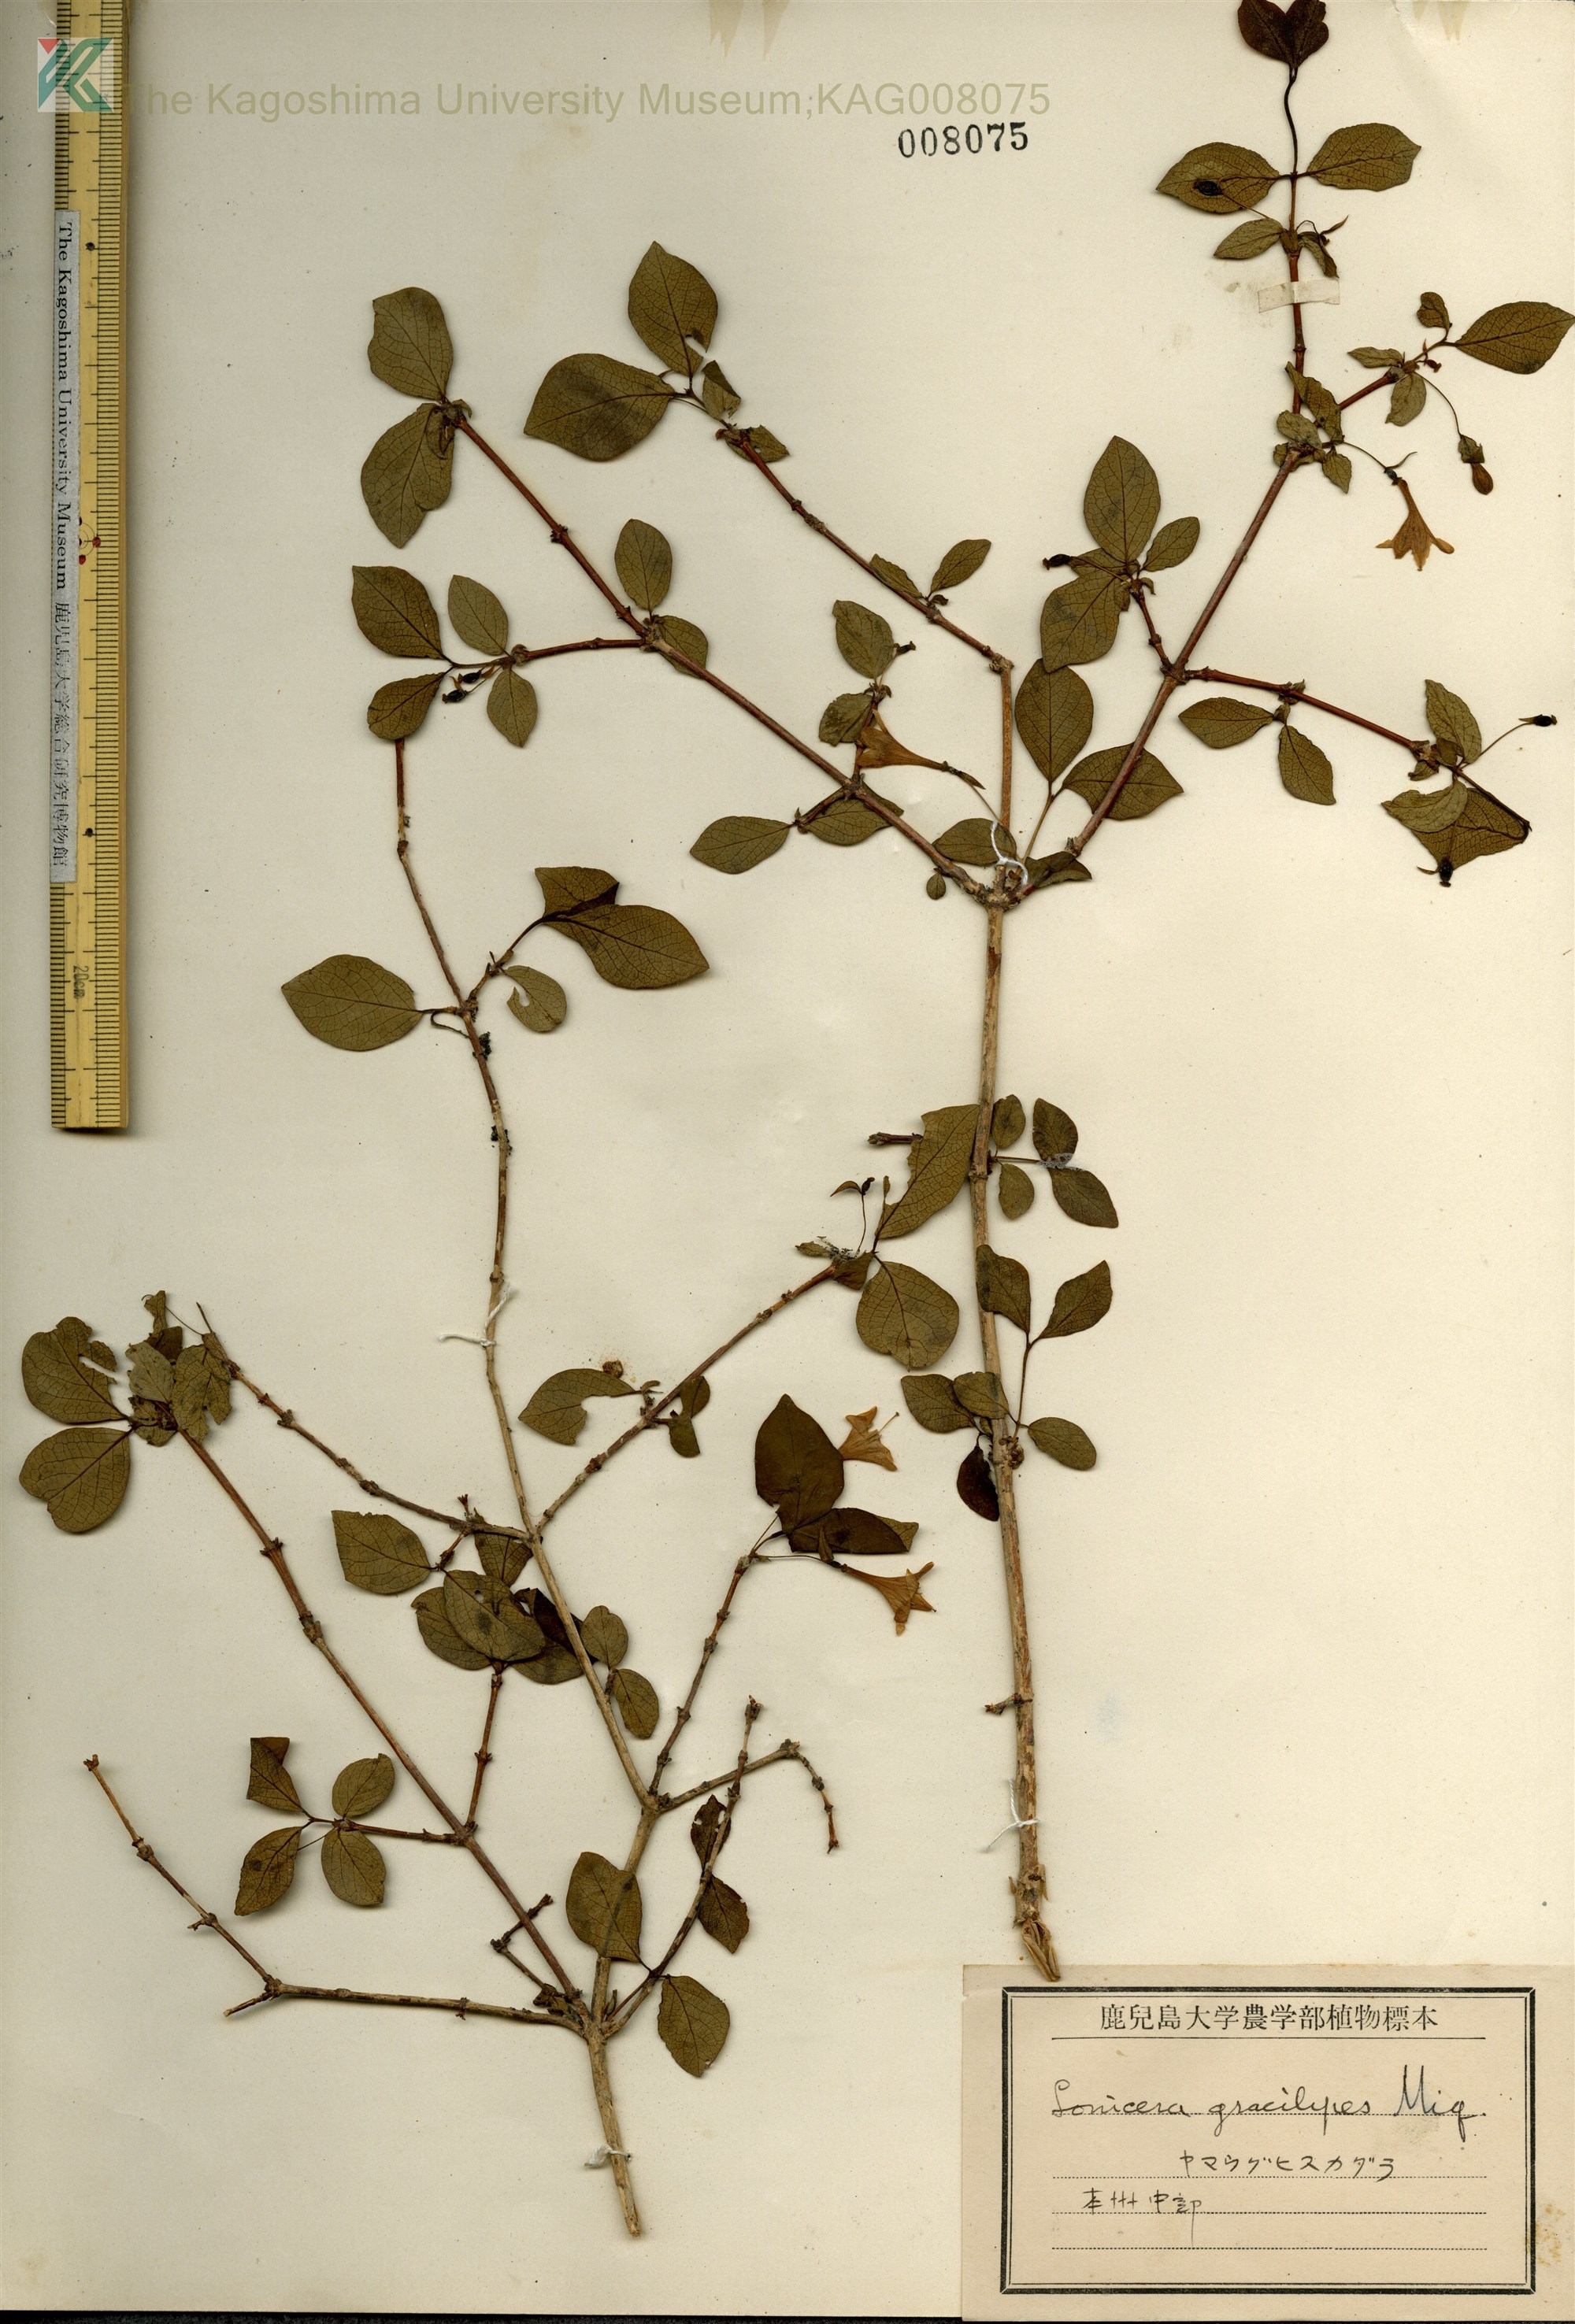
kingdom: Plantae
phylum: Tracheophyta
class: Magnoliopsida
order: Dipsacales
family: Caprifoliaceae
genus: Lonicera
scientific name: Lonicera gracilipes
